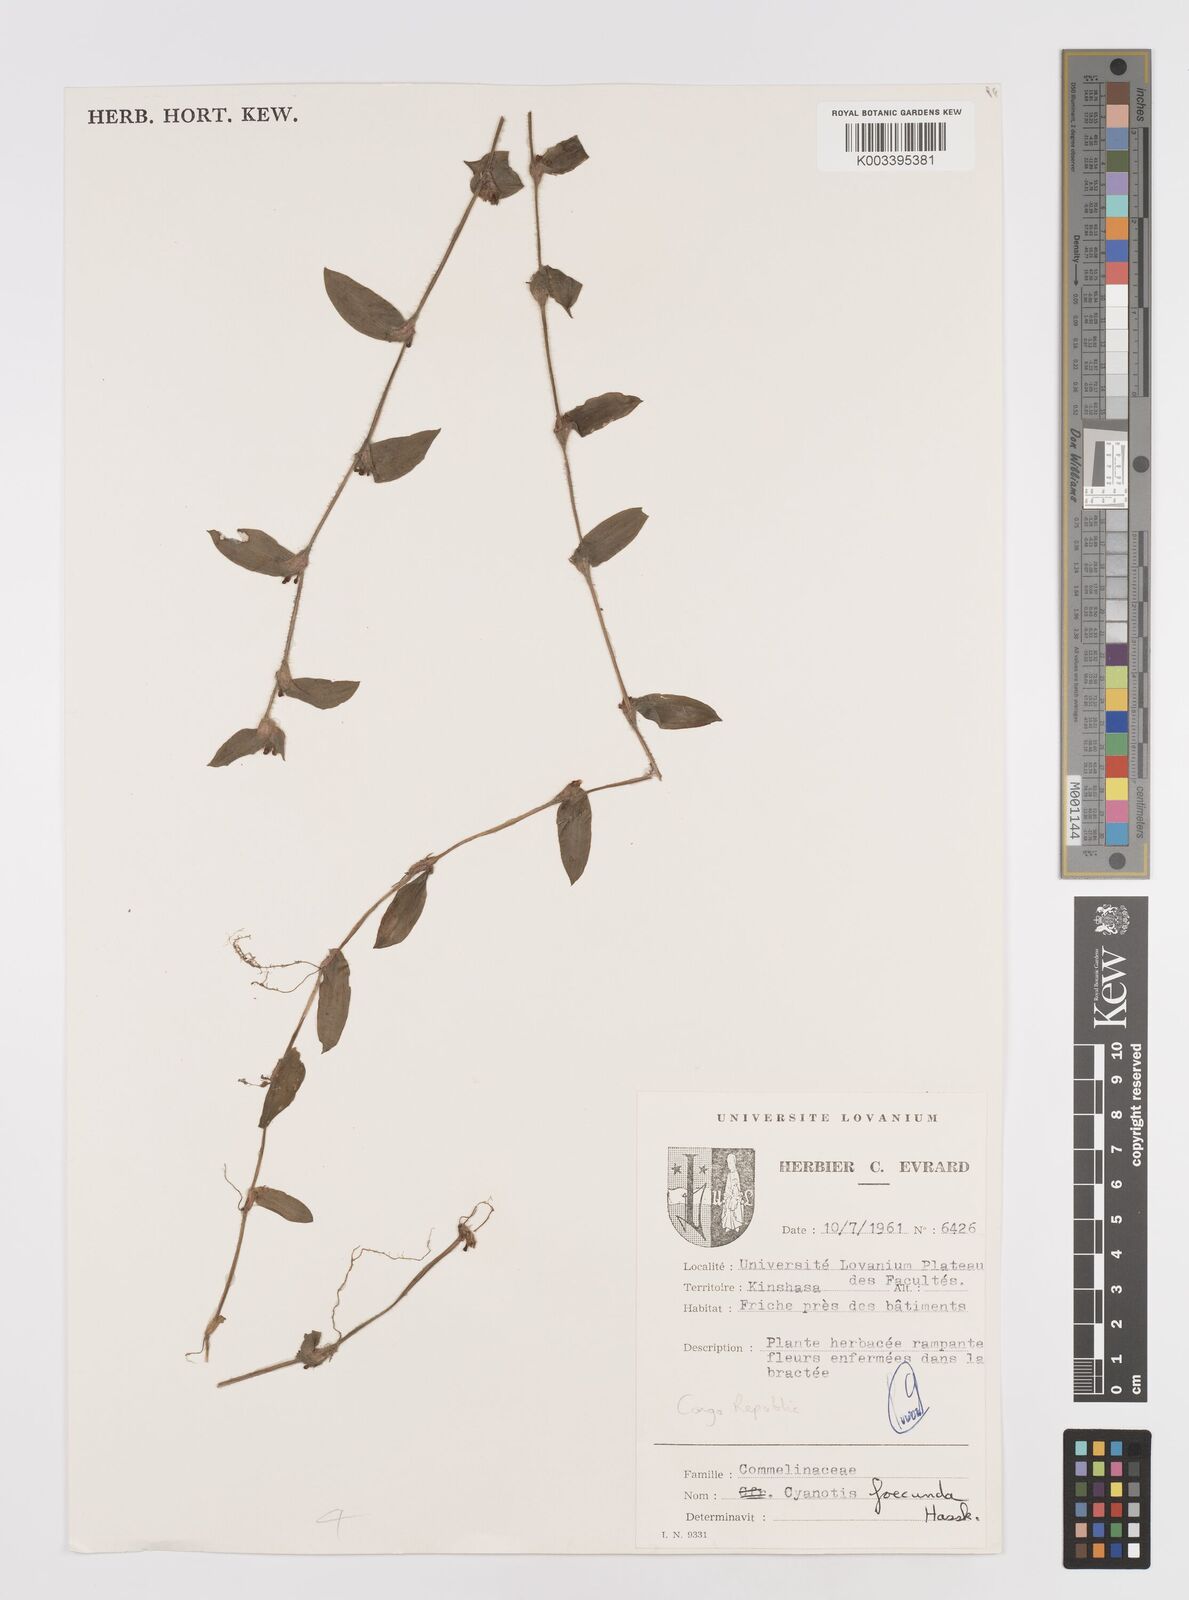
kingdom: Plantae
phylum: Tracheophyta
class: Liliopsida
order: Commelinales
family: Commelinaceae
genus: Cyanotis
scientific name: Cyanotis foecunda
